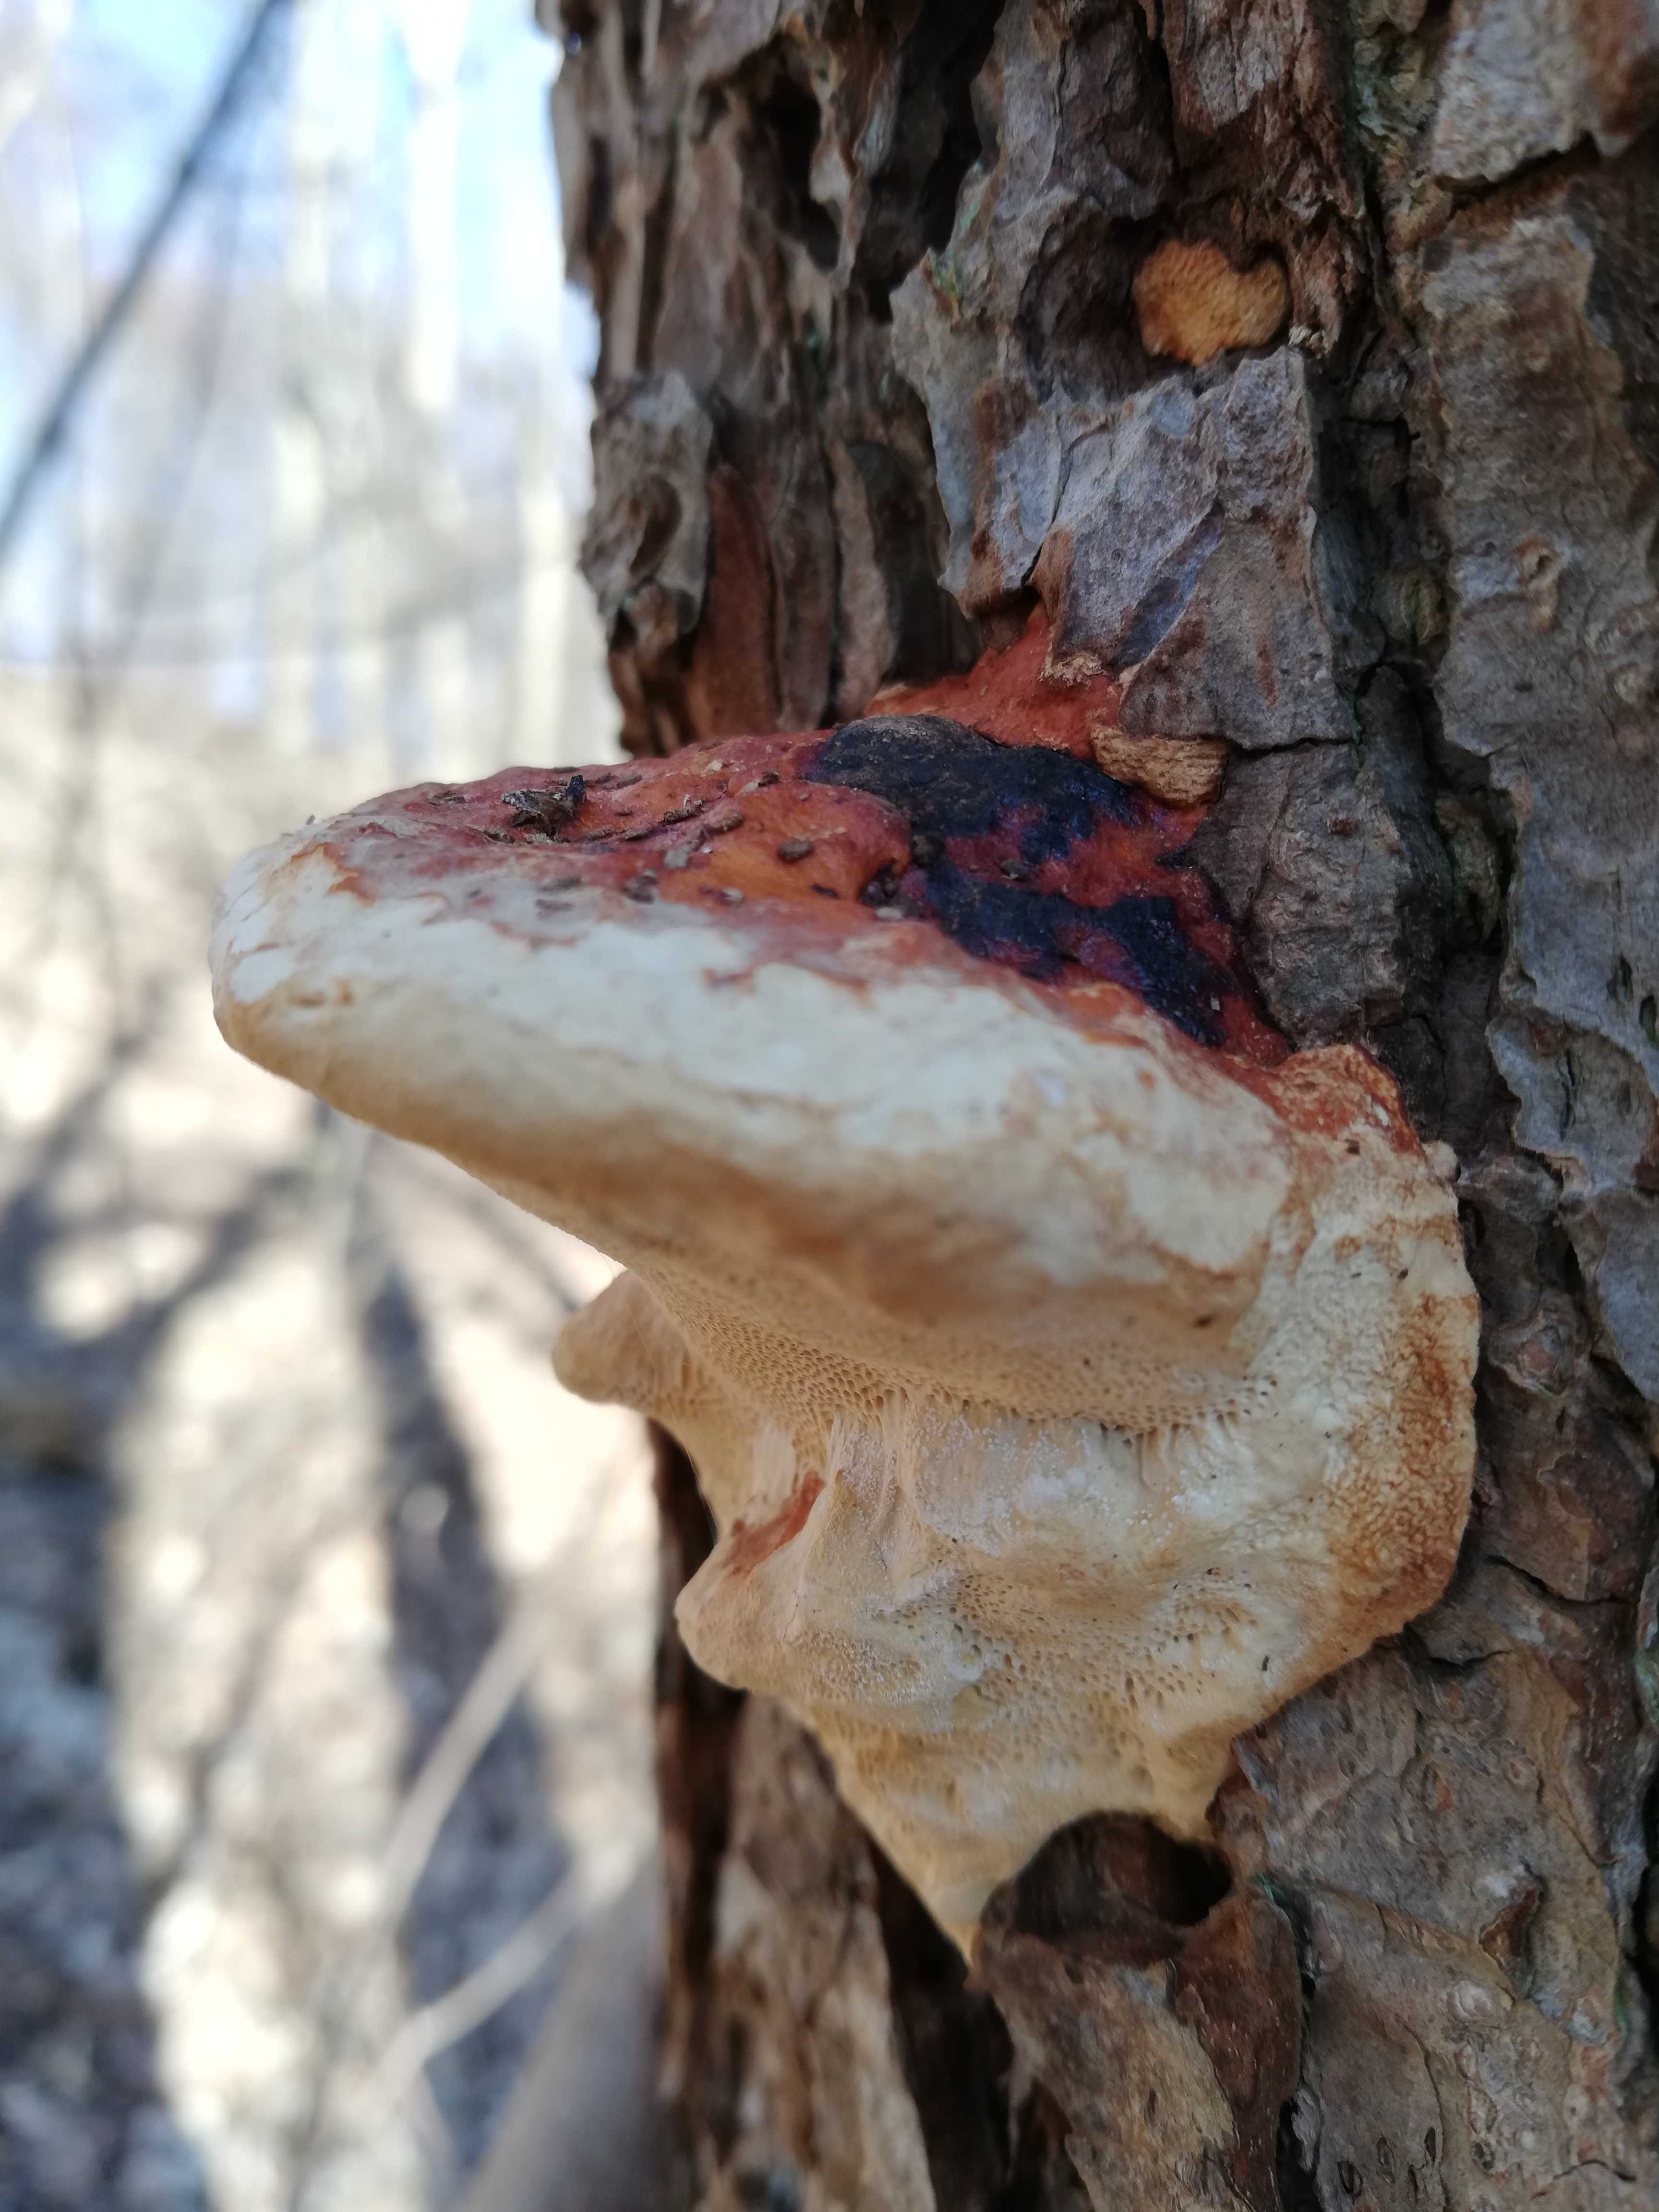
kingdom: Fungi
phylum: Basidiomycota
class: Agaricomycetes
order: Polyporales
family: Fomitopsidaceae
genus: Fomitopsis
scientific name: Fomitopsis pinicola
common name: randbæltet hovporesvamp
